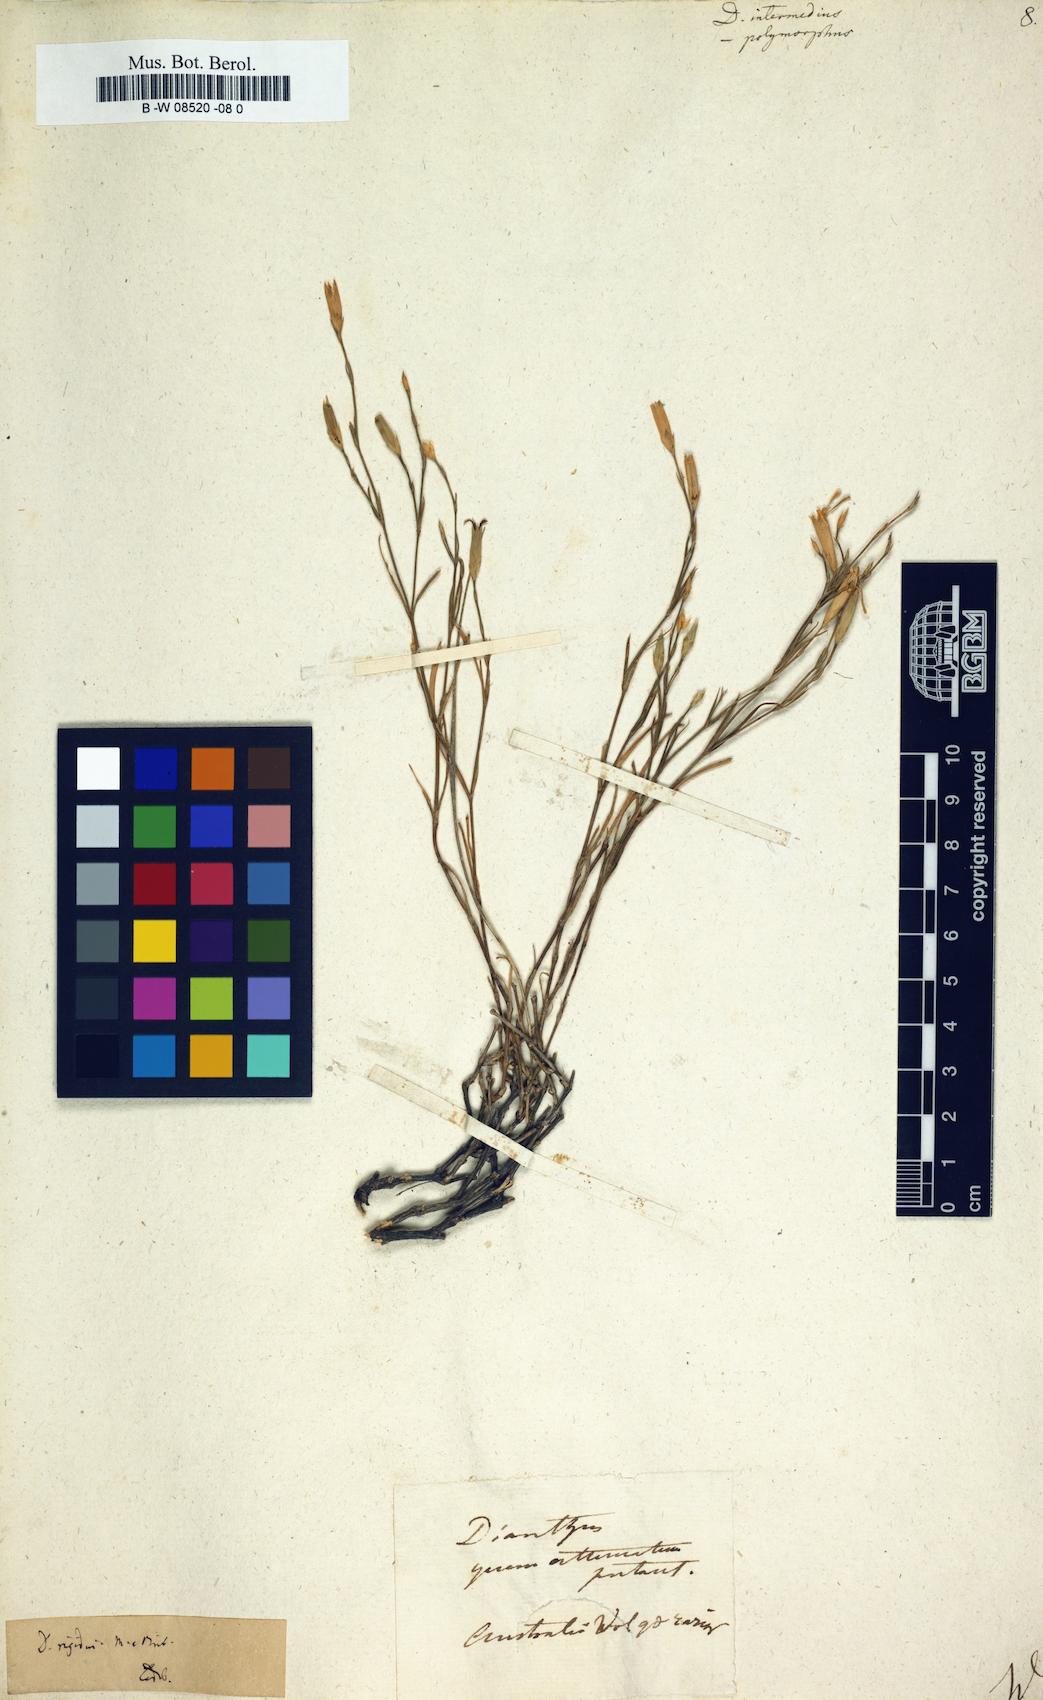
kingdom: Plantae
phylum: Tracheophyta
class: Magnoliopsida
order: Caryophyllales
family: Caryophyllaceae
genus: Dianthus
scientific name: Dianthus
